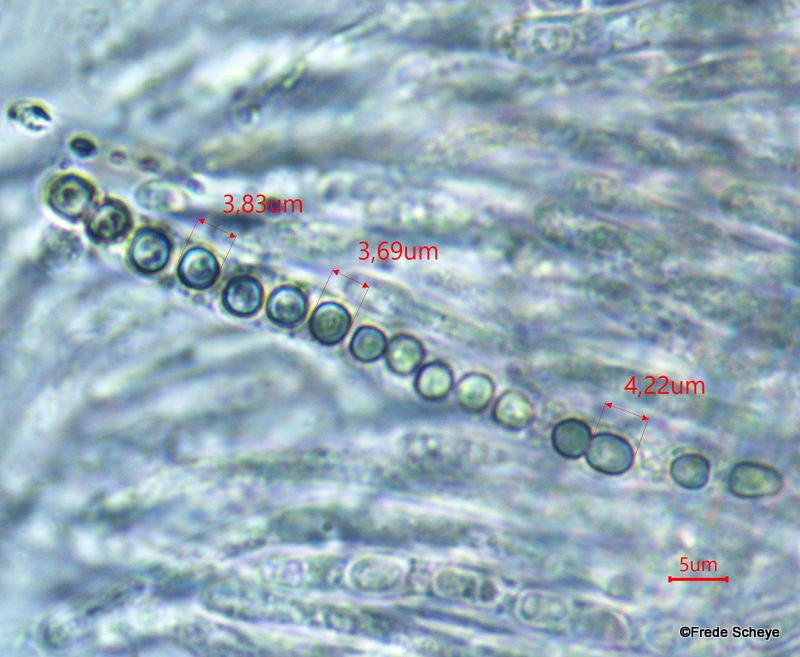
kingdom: Fungi
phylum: Ascomycota
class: Sordariomycetes
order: Hypocreales
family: Hypocreaceae
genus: Trichoderma
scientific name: Trichoderma aureoviride
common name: æggegul kødkerne
